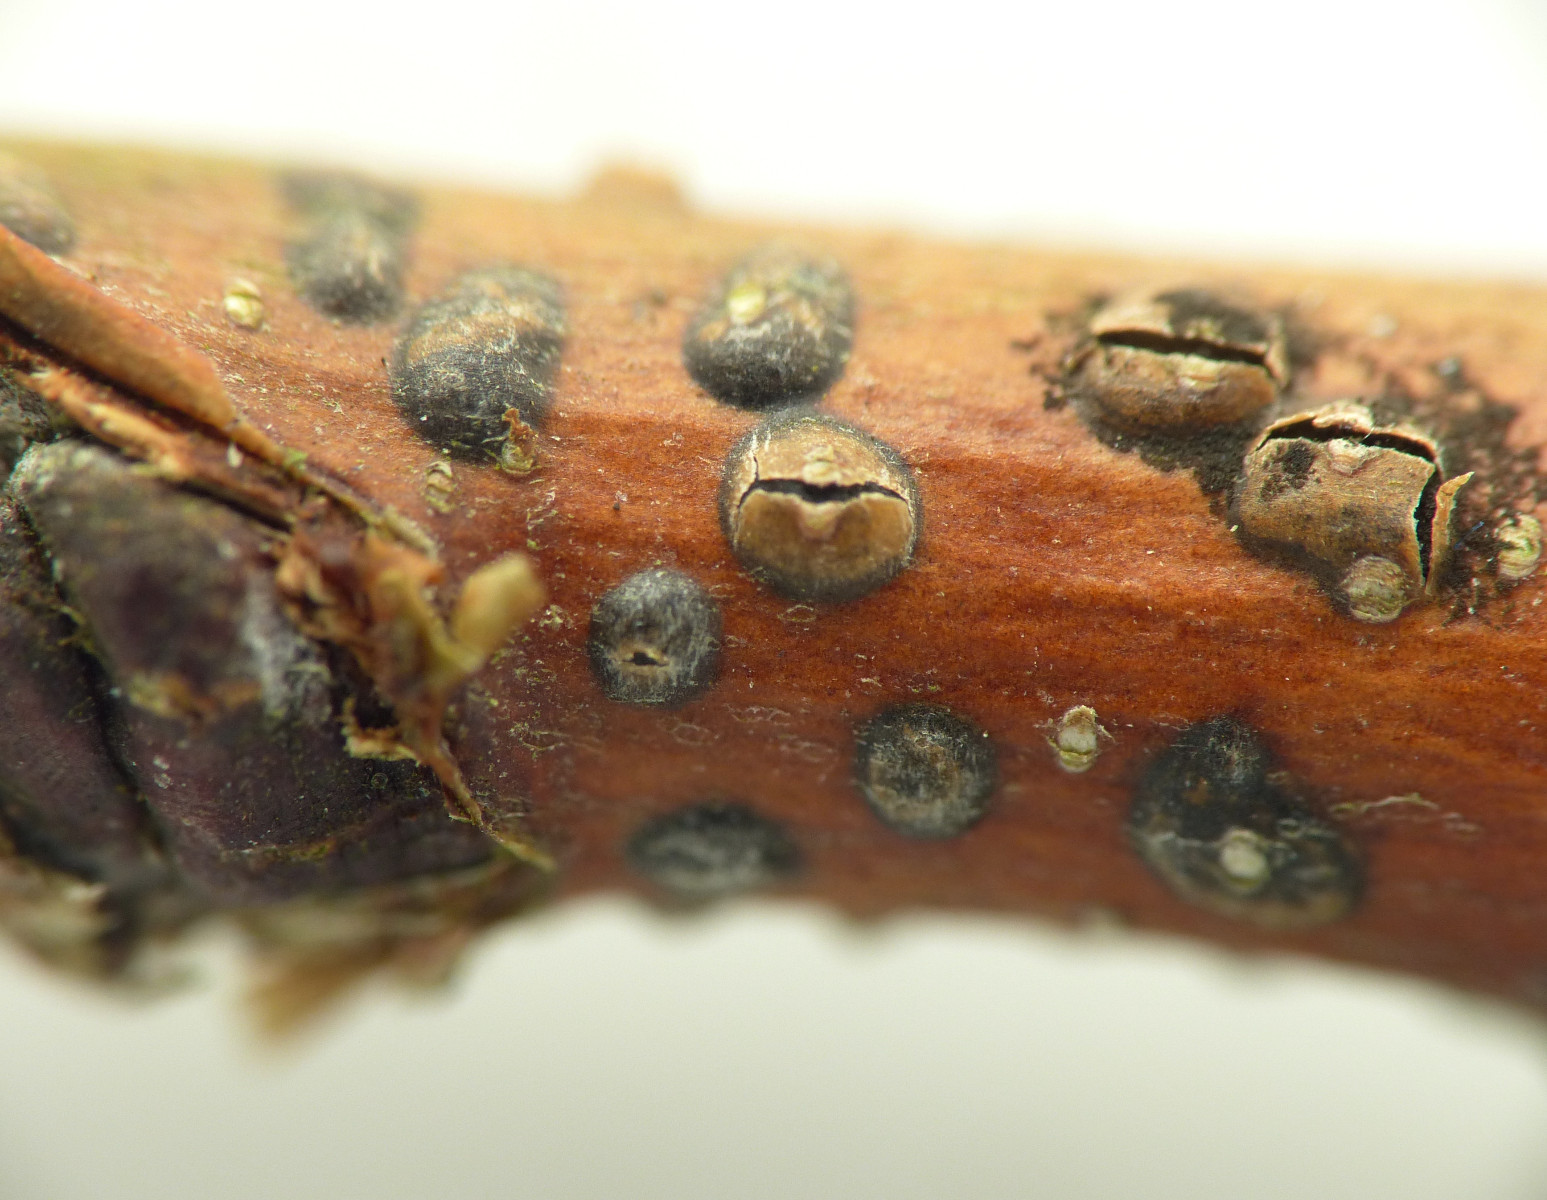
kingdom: Fungi
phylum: Ascomycota
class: Sordariomycetes
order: Diaporthales
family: Asterosporiaceae
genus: Asterosporium
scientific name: Asterosporium asterospermum
